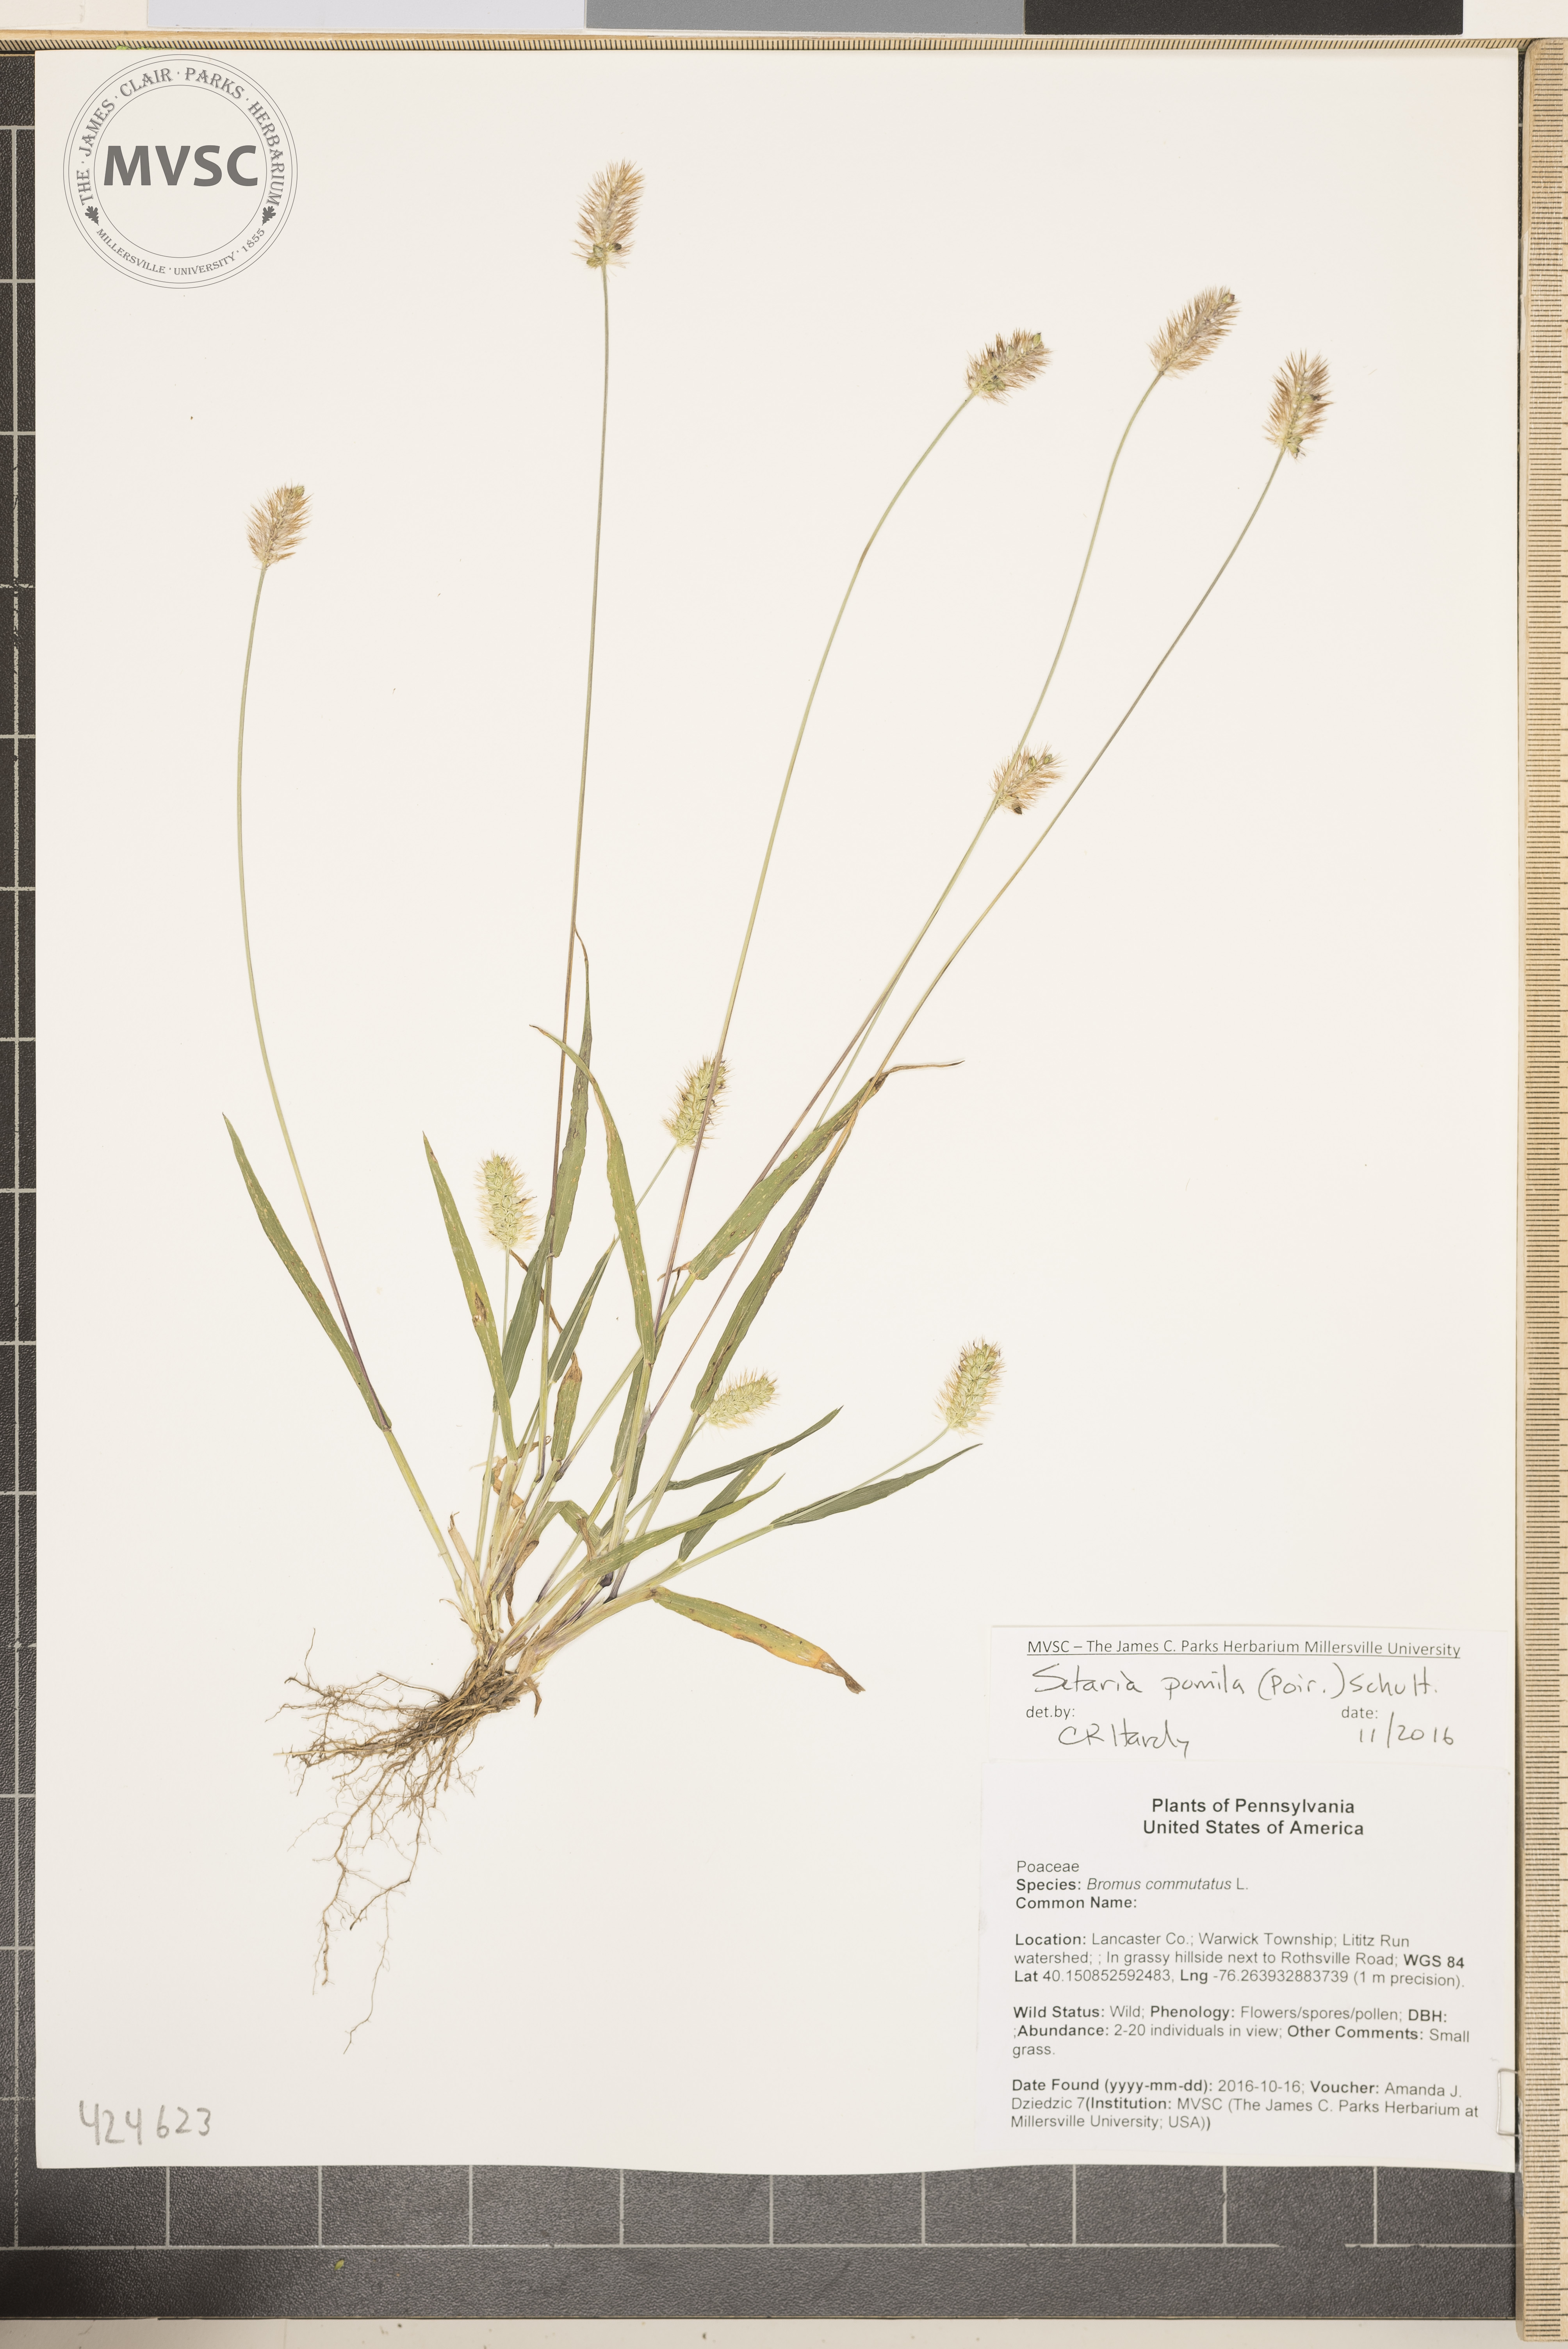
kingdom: Plantae
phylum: Tracheophyta
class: Liliopsida
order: Poales
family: Poaceae
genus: Setaria
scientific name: Setaria pumila
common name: Yellow foxtail
